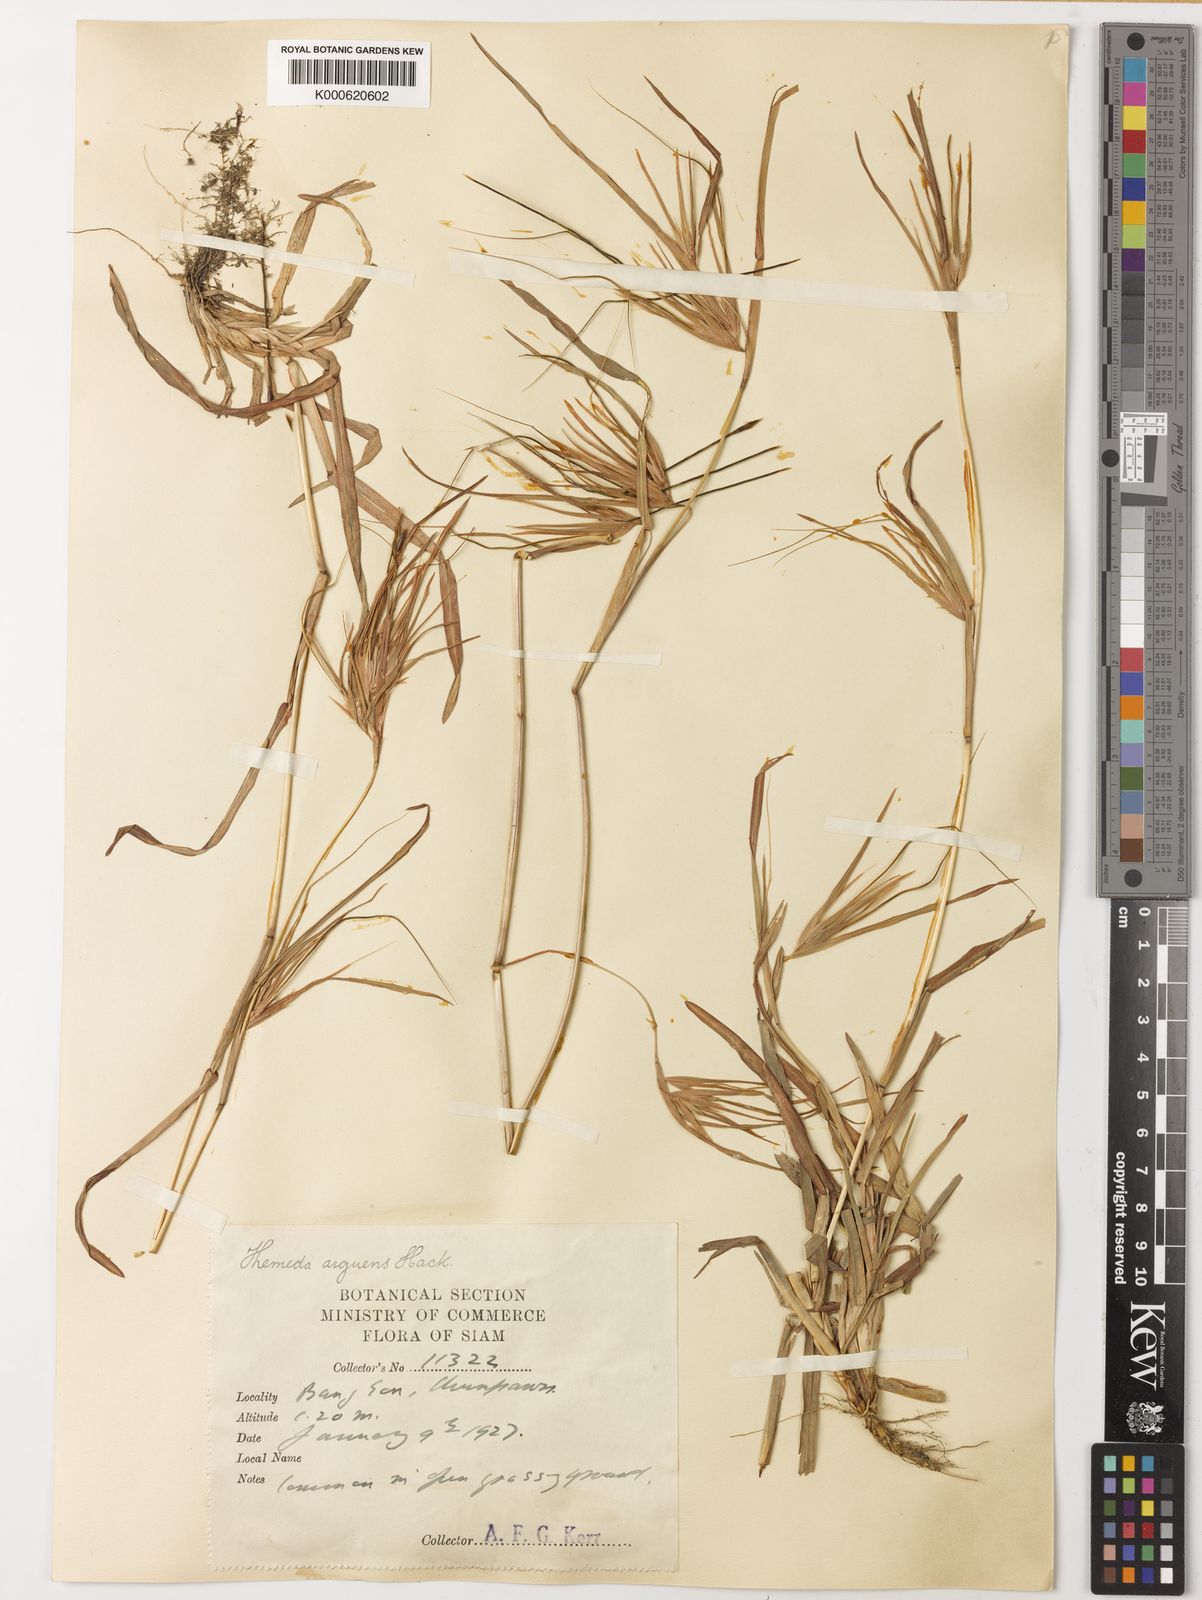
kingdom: Plantae
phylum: Tracheophyta
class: Liliopsida
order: Poales
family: Poaceae
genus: Themeda
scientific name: Themeda arguens
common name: Christmas grass
